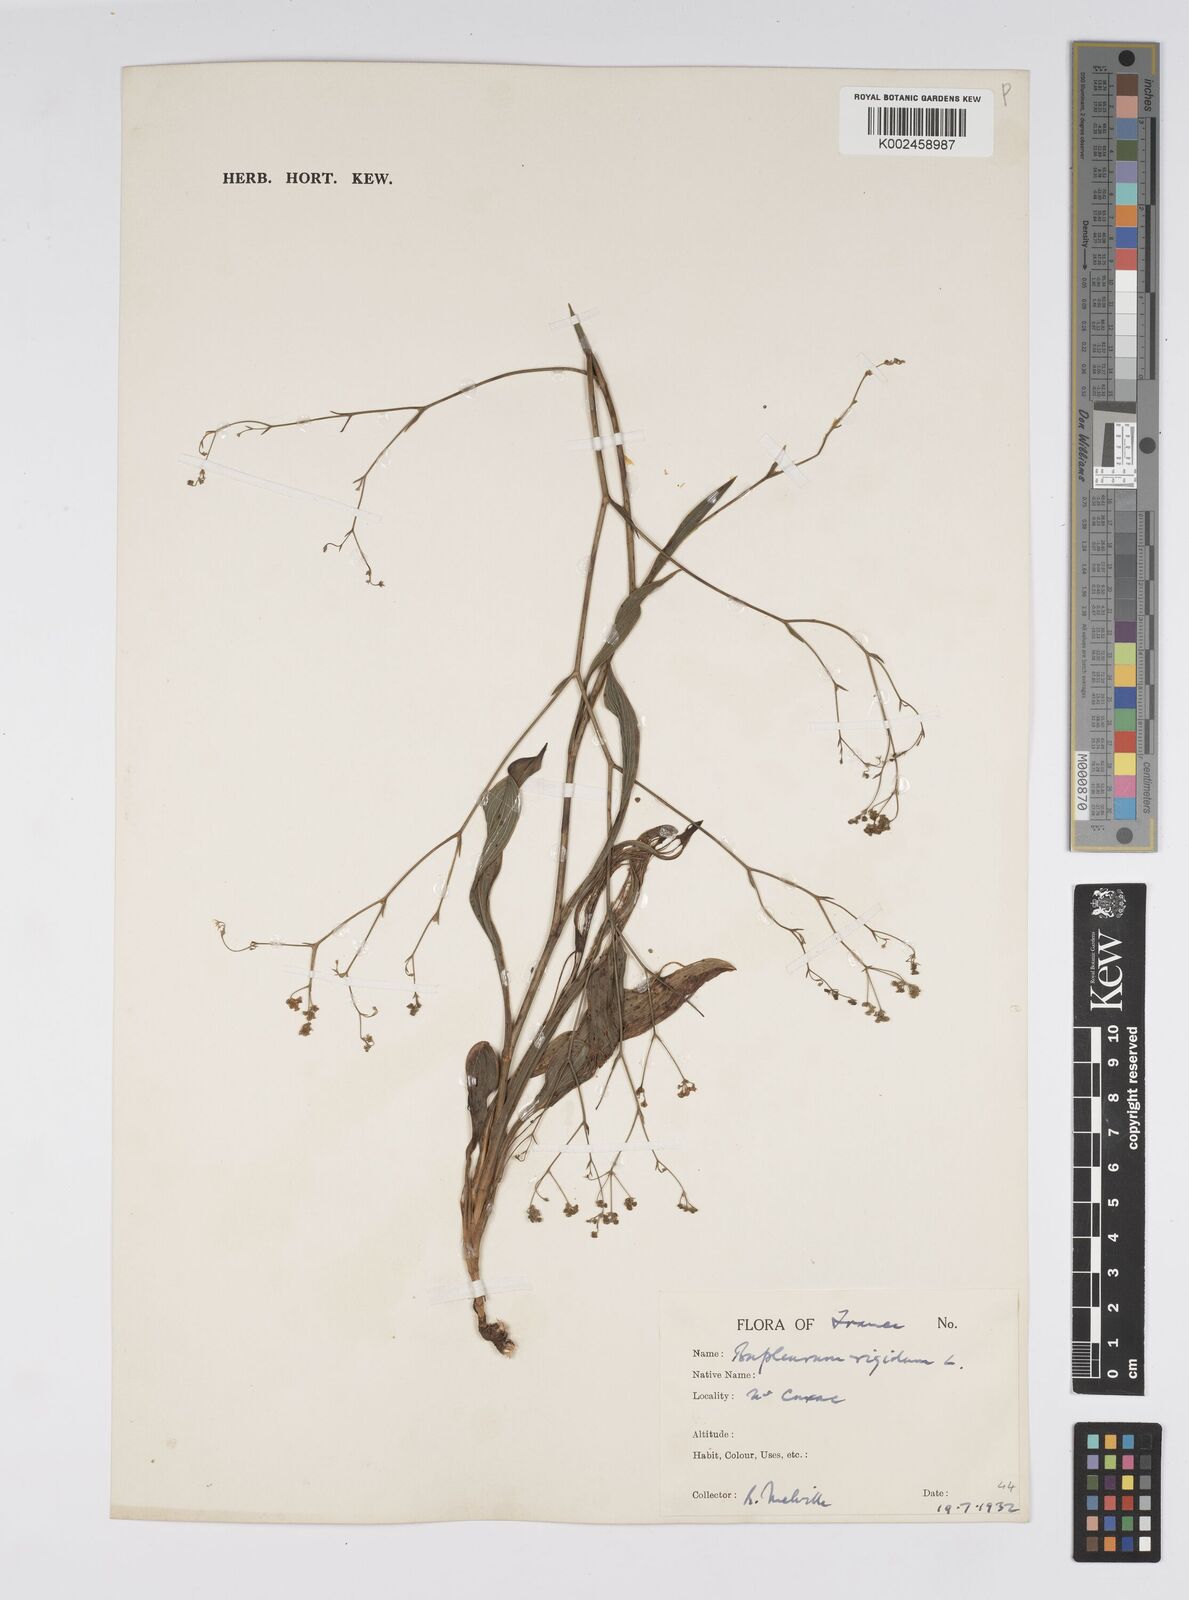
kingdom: Plantae
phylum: Tracheophyta
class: Magnoliopsida
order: Apiales
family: Apiaceae
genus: Bupleurum
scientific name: Bupleurum rigidum
